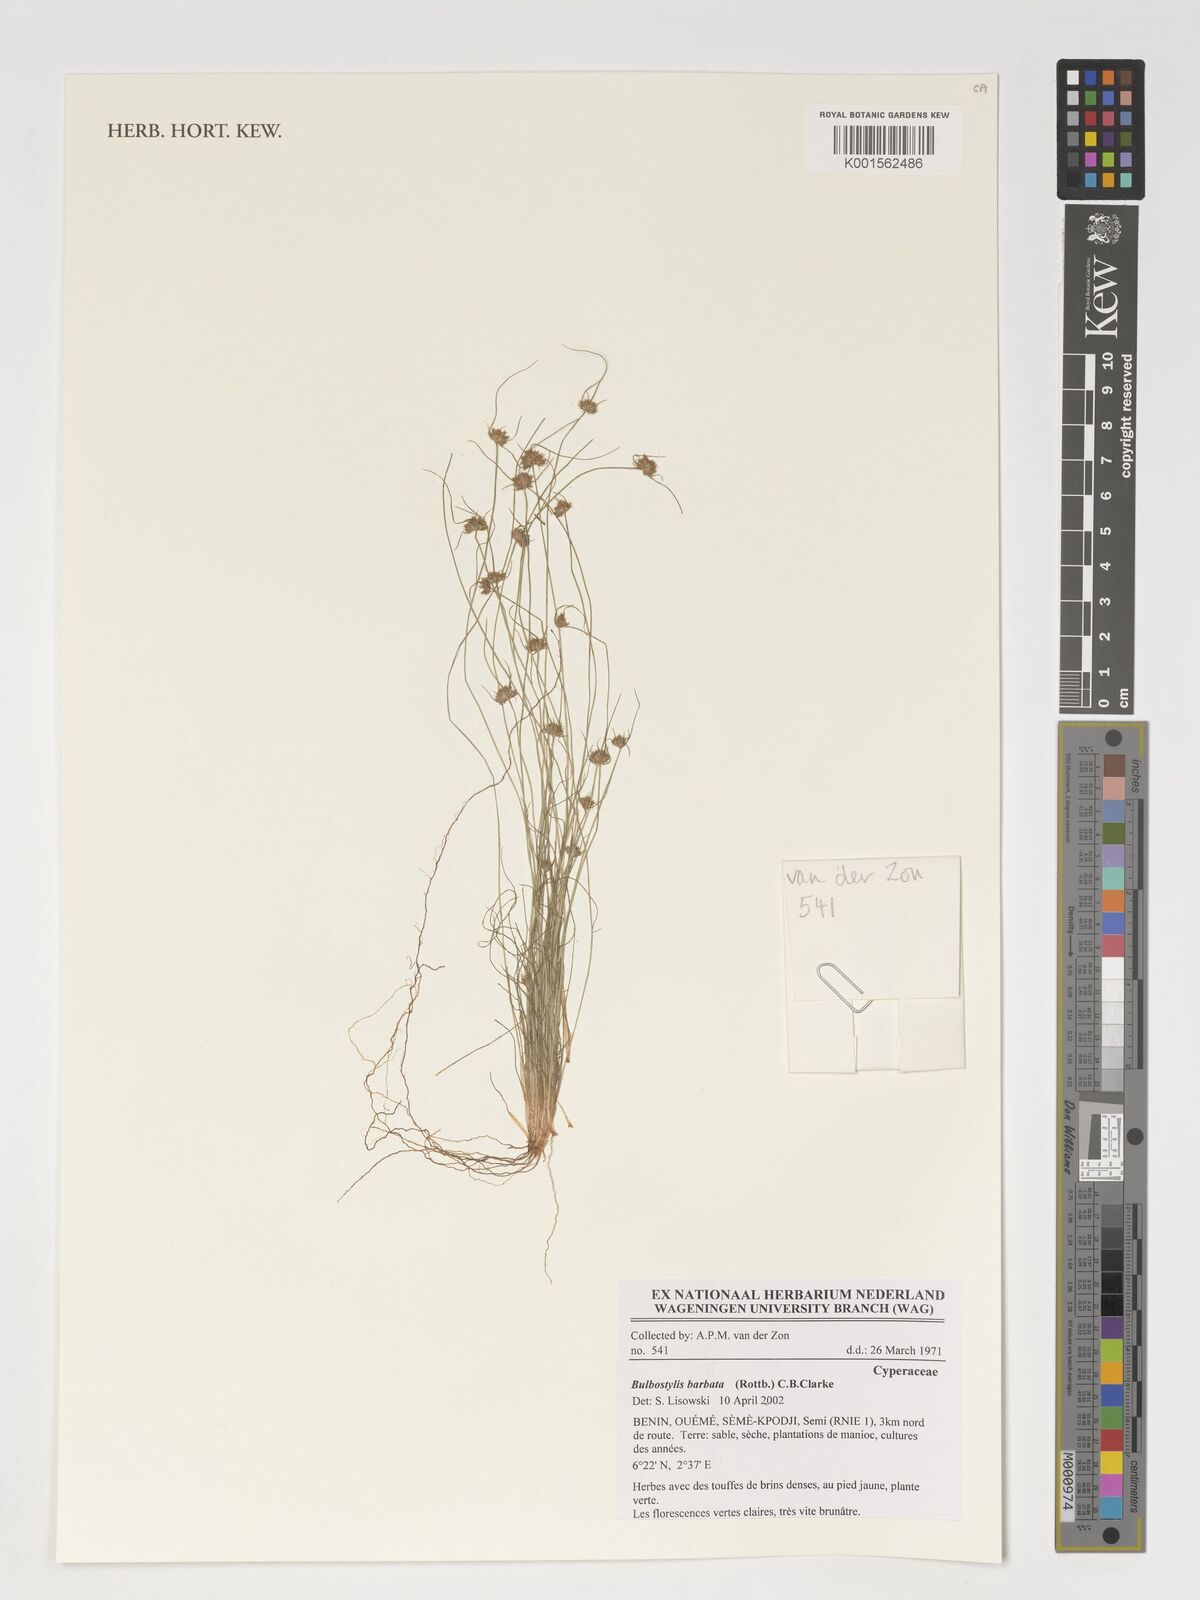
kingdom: Plantae
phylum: Tracheophyta
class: Liliopsida
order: Poales
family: Cyperaceae
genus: Bulbostylis
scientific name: Bulbostylis barbata
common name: Watergrass
